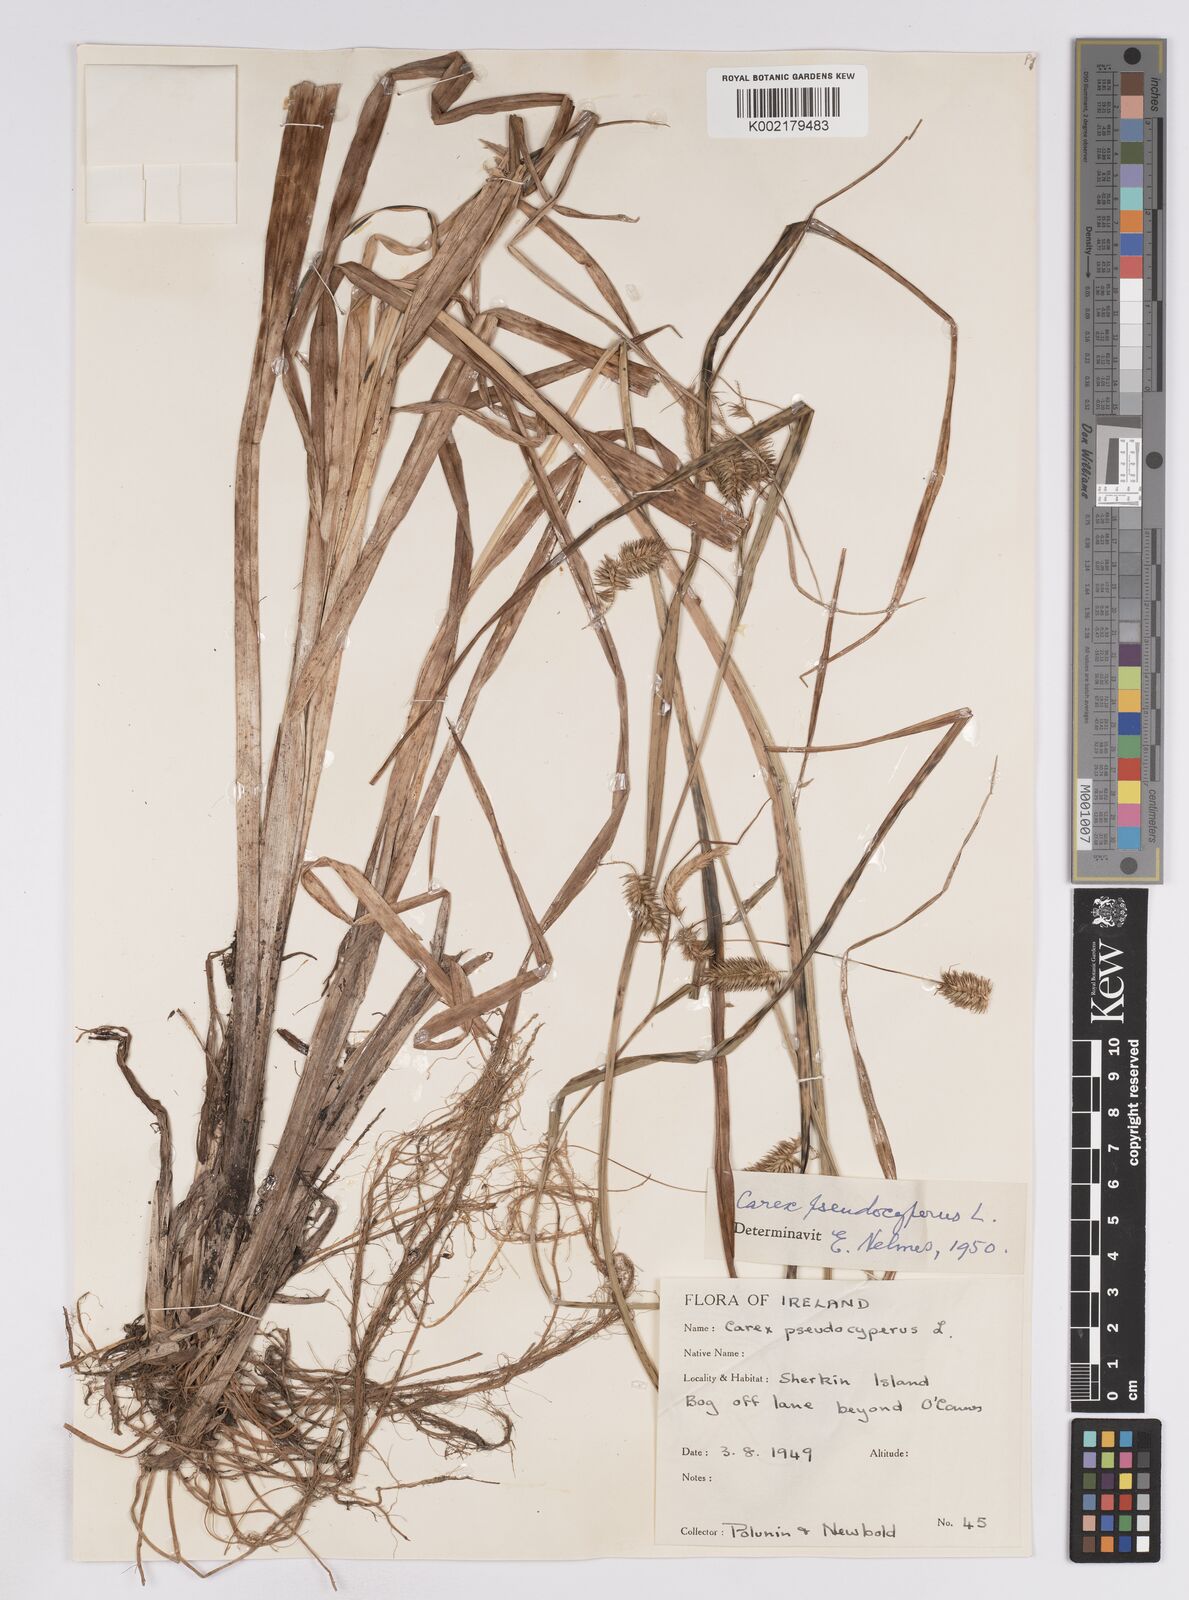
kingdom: Plantae
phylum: Tracheophyta
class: Liliopsida
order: Poales
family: Cyperaceae
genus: Carex
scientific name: Carex pseudocyperus
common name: Cyperus sedge
